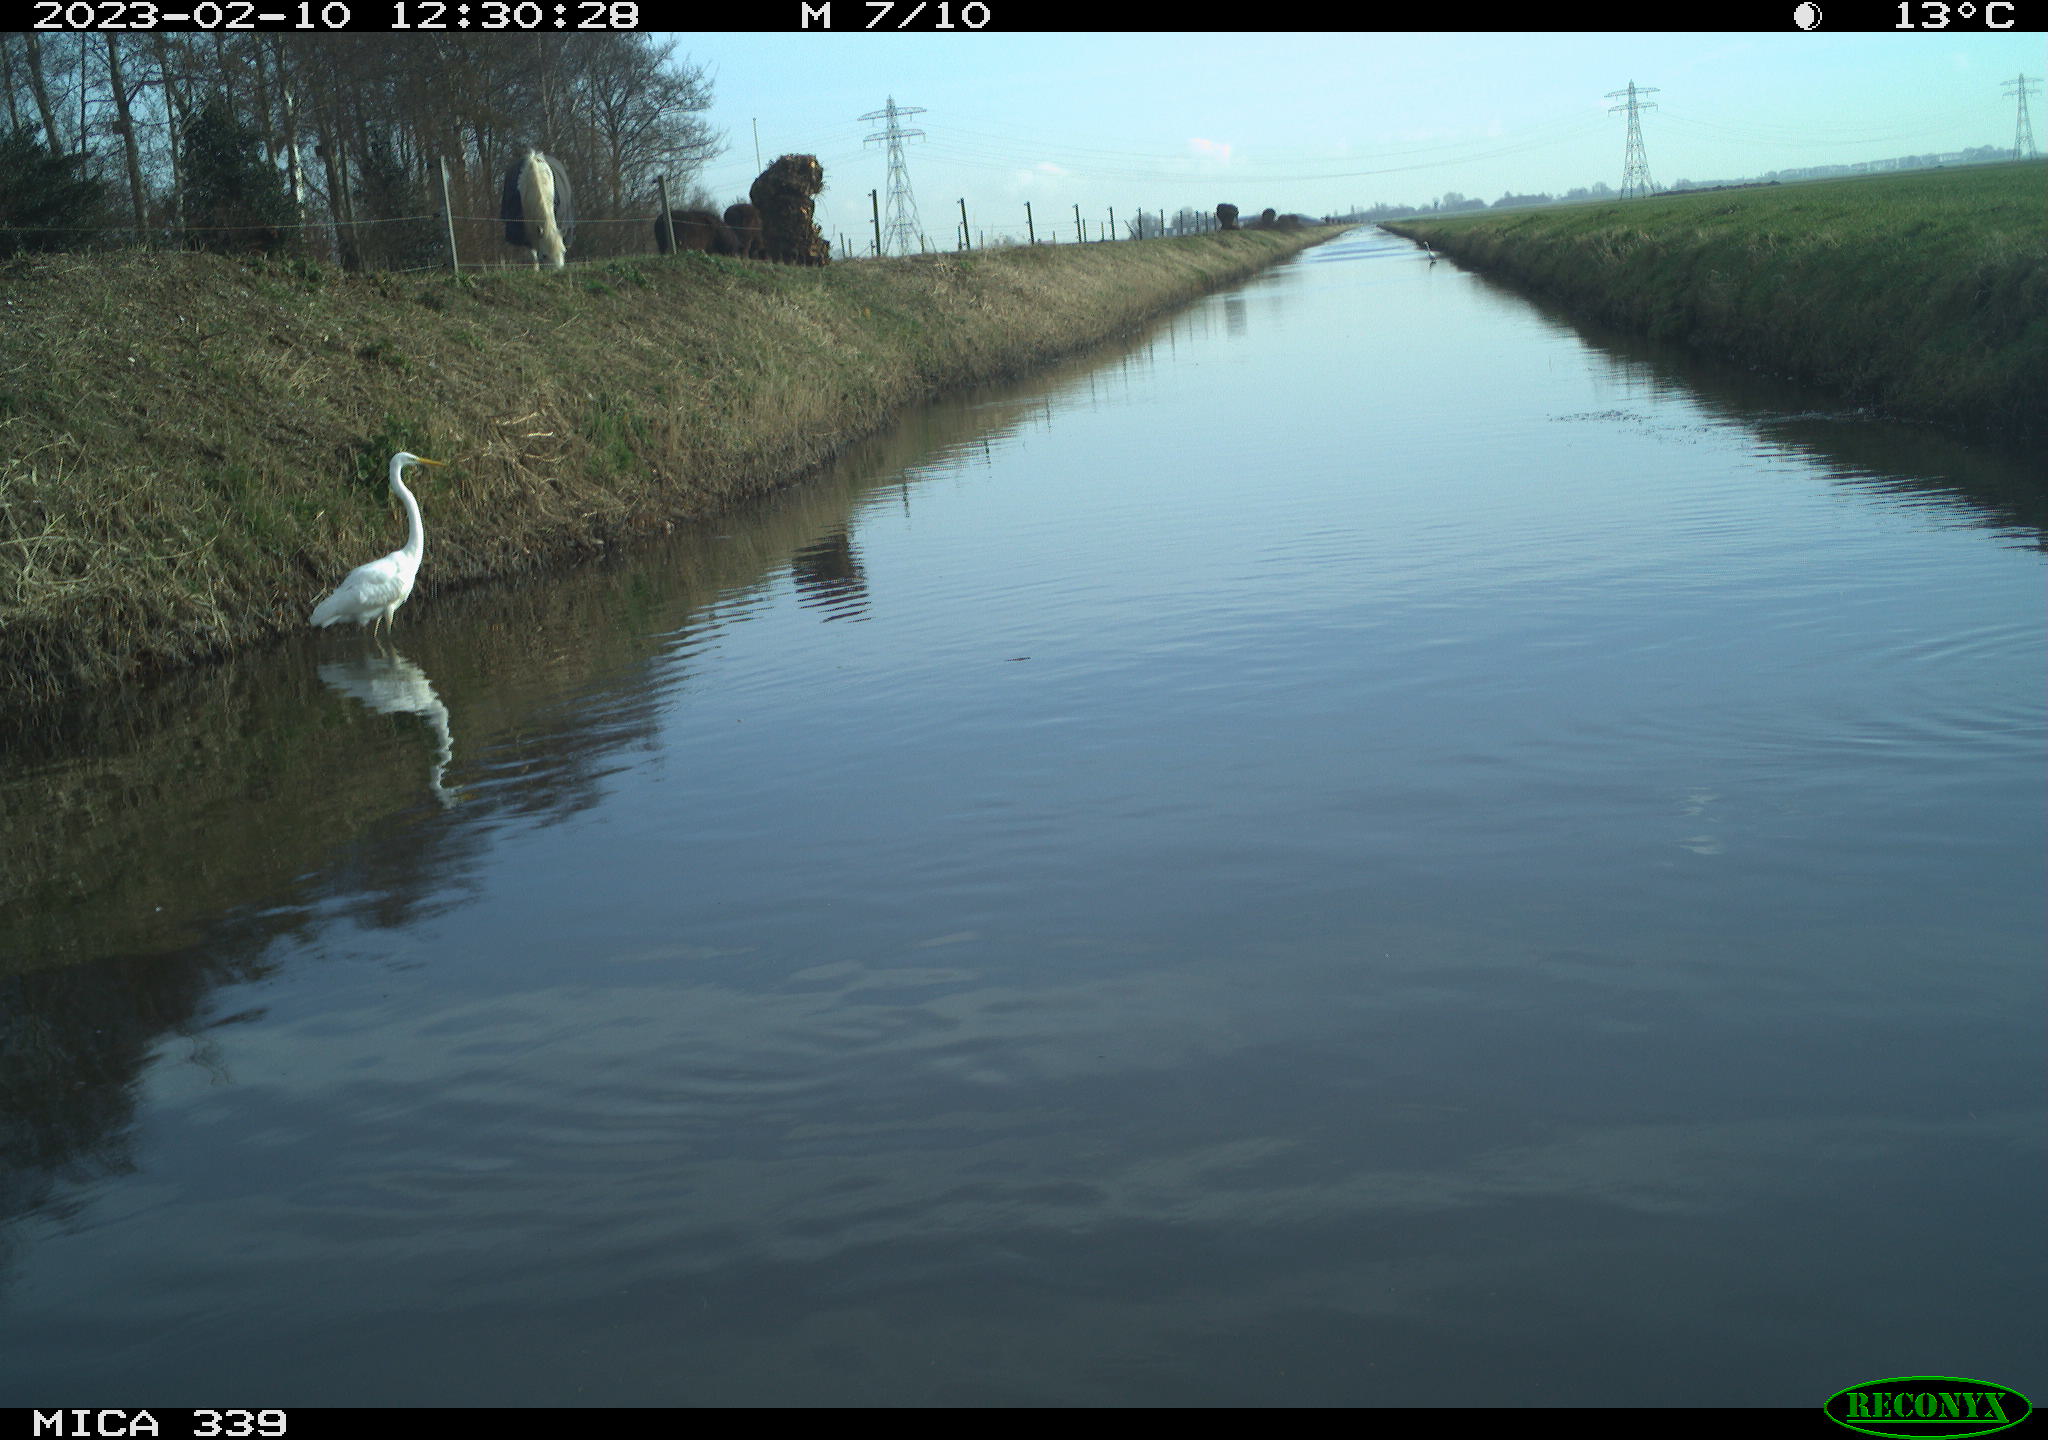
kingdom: Animalia
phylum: Chordata
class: Aves
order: Pelecaniformes
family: Ardeidae
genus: Ardea
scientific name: Ardea alba
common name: Great egret
